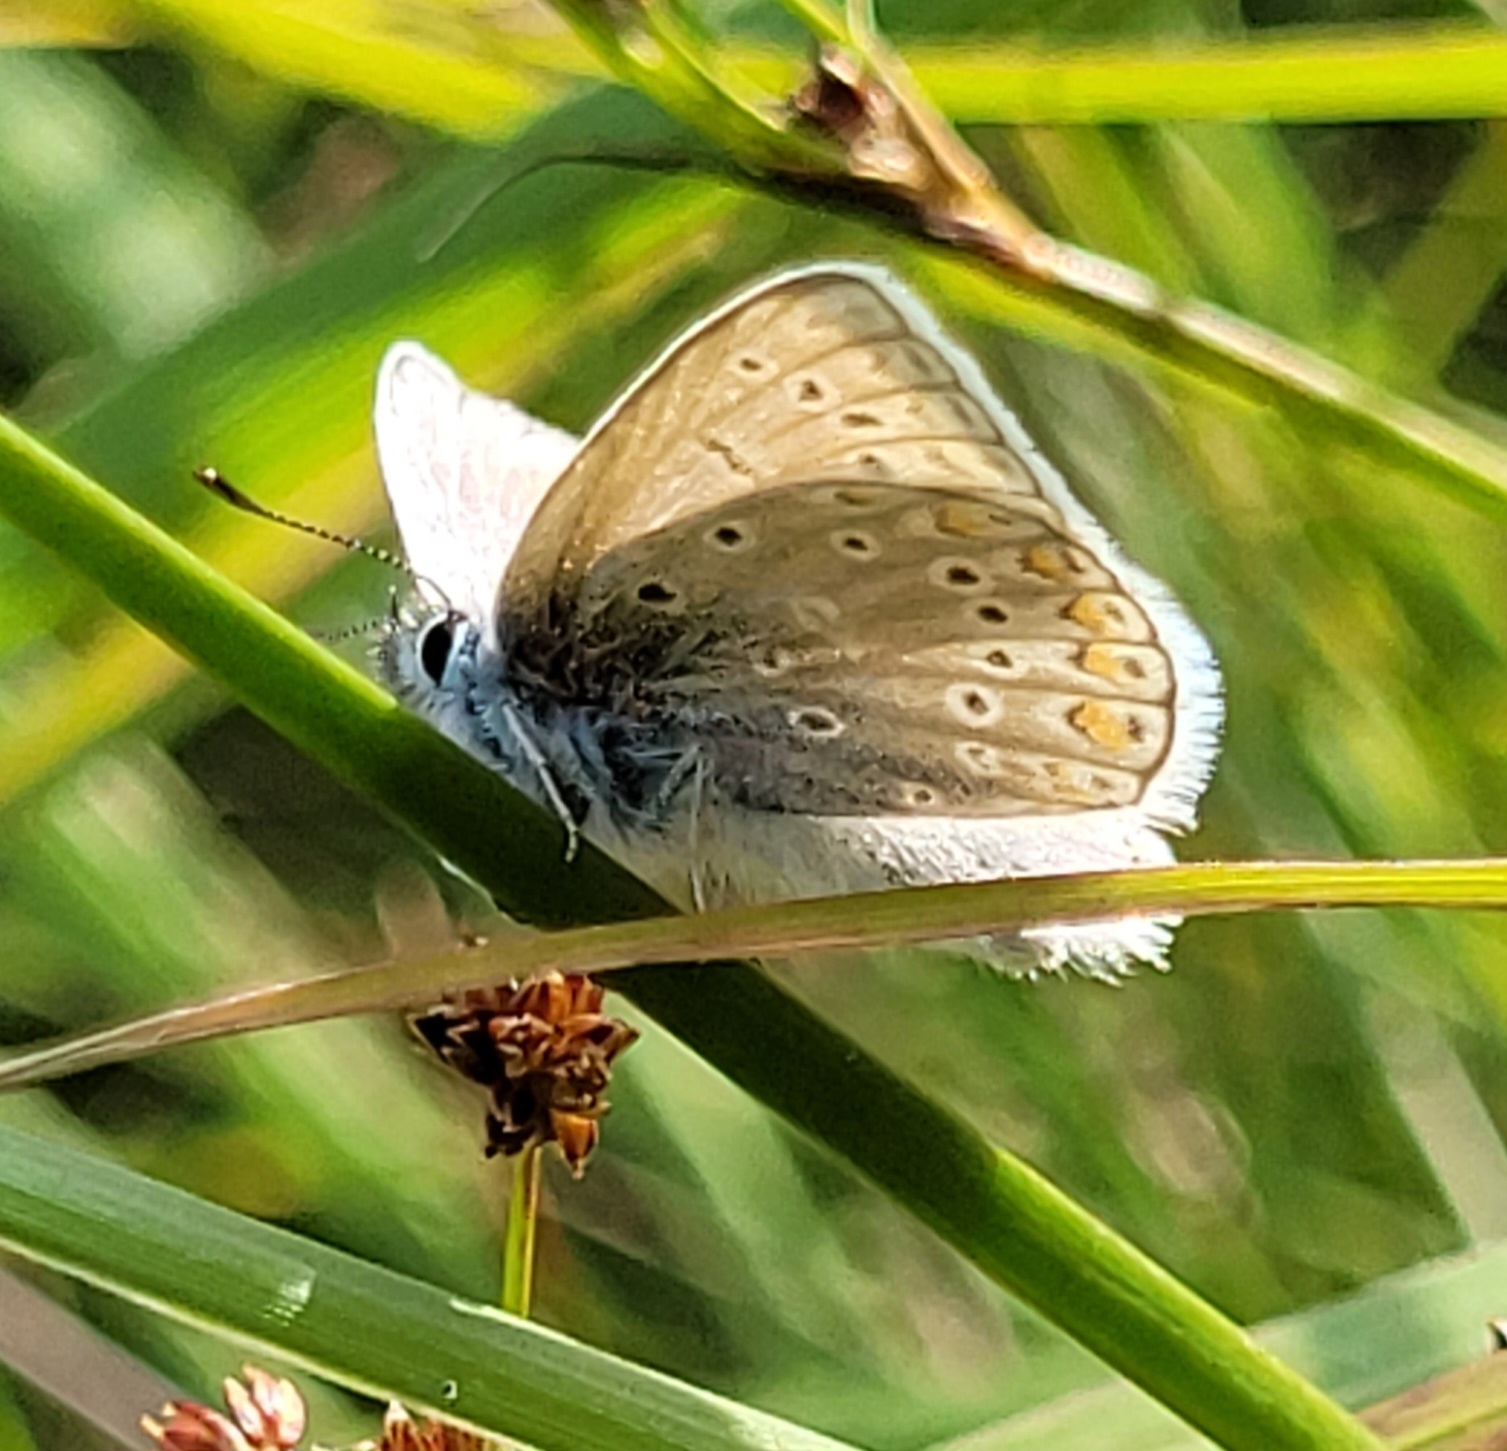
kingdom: Animalia
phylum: Arthropoda
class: Insecta
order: Lepidoptera
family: Lycaenidae
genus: Polyommatus
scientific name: Polyommatus icarus
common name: Almindelig blåfugl
